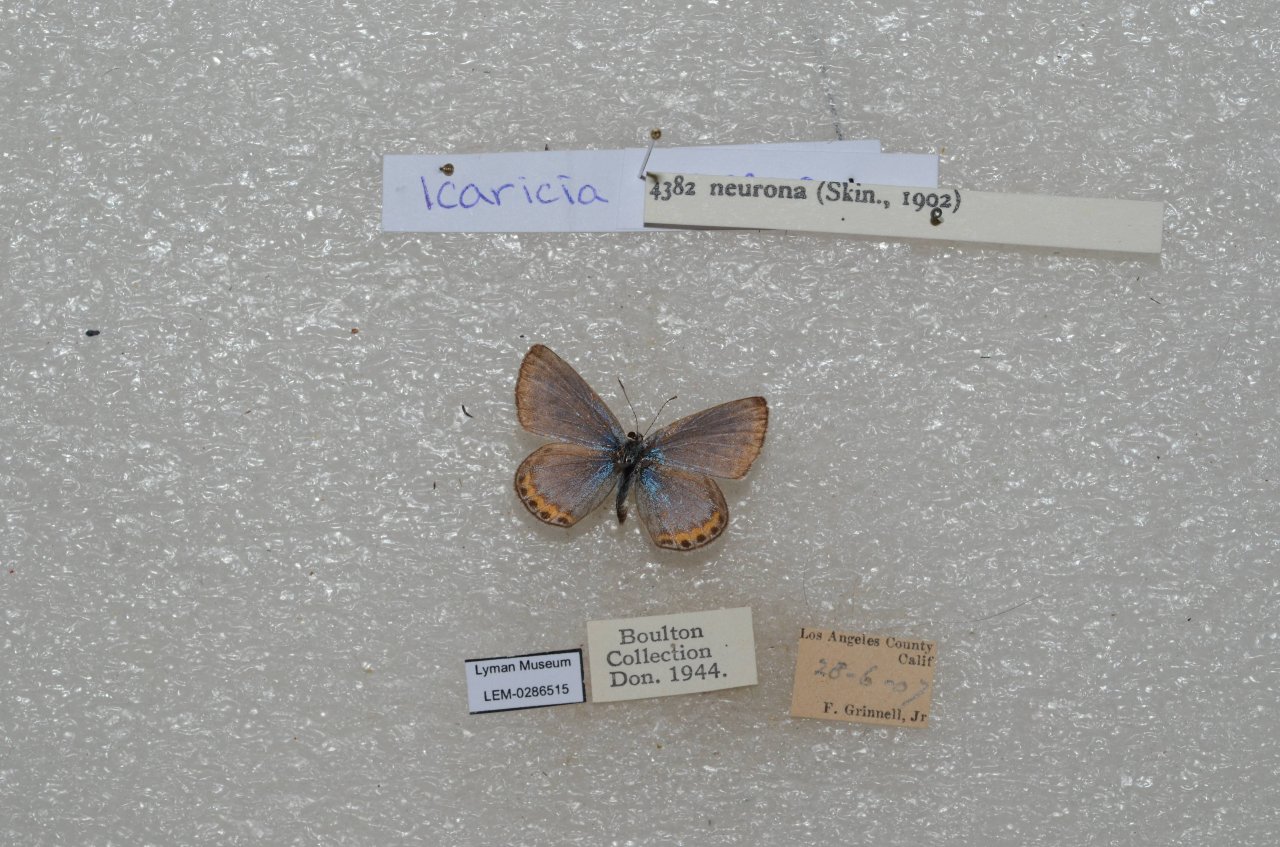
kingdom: Animalia
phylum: Arthropoda
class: Insecta
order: Lepidoptera
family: Lycaenidae
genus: Lycaena
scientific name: Lycaena neurona
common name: Veined Blue
